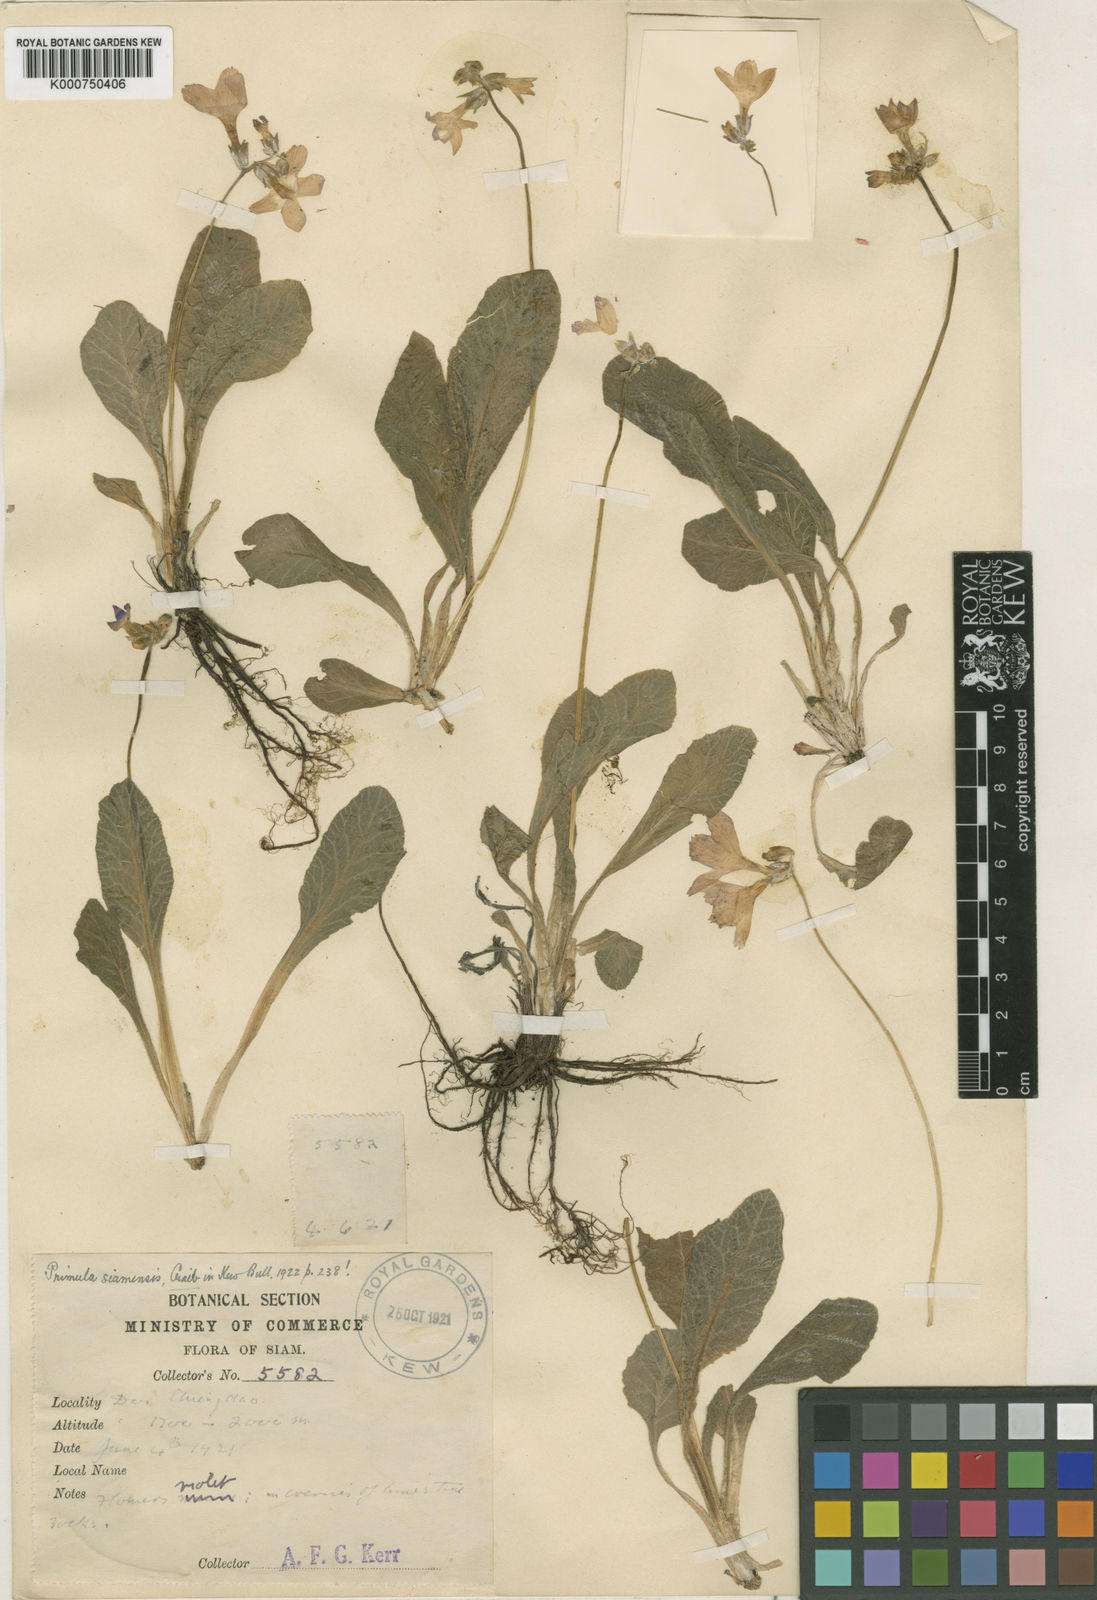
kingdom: Plantae
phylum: Tracheophyta
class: Magnoliopsida
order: Ericales
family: Primulaceae
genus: Primula
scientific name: Primula siamensis
